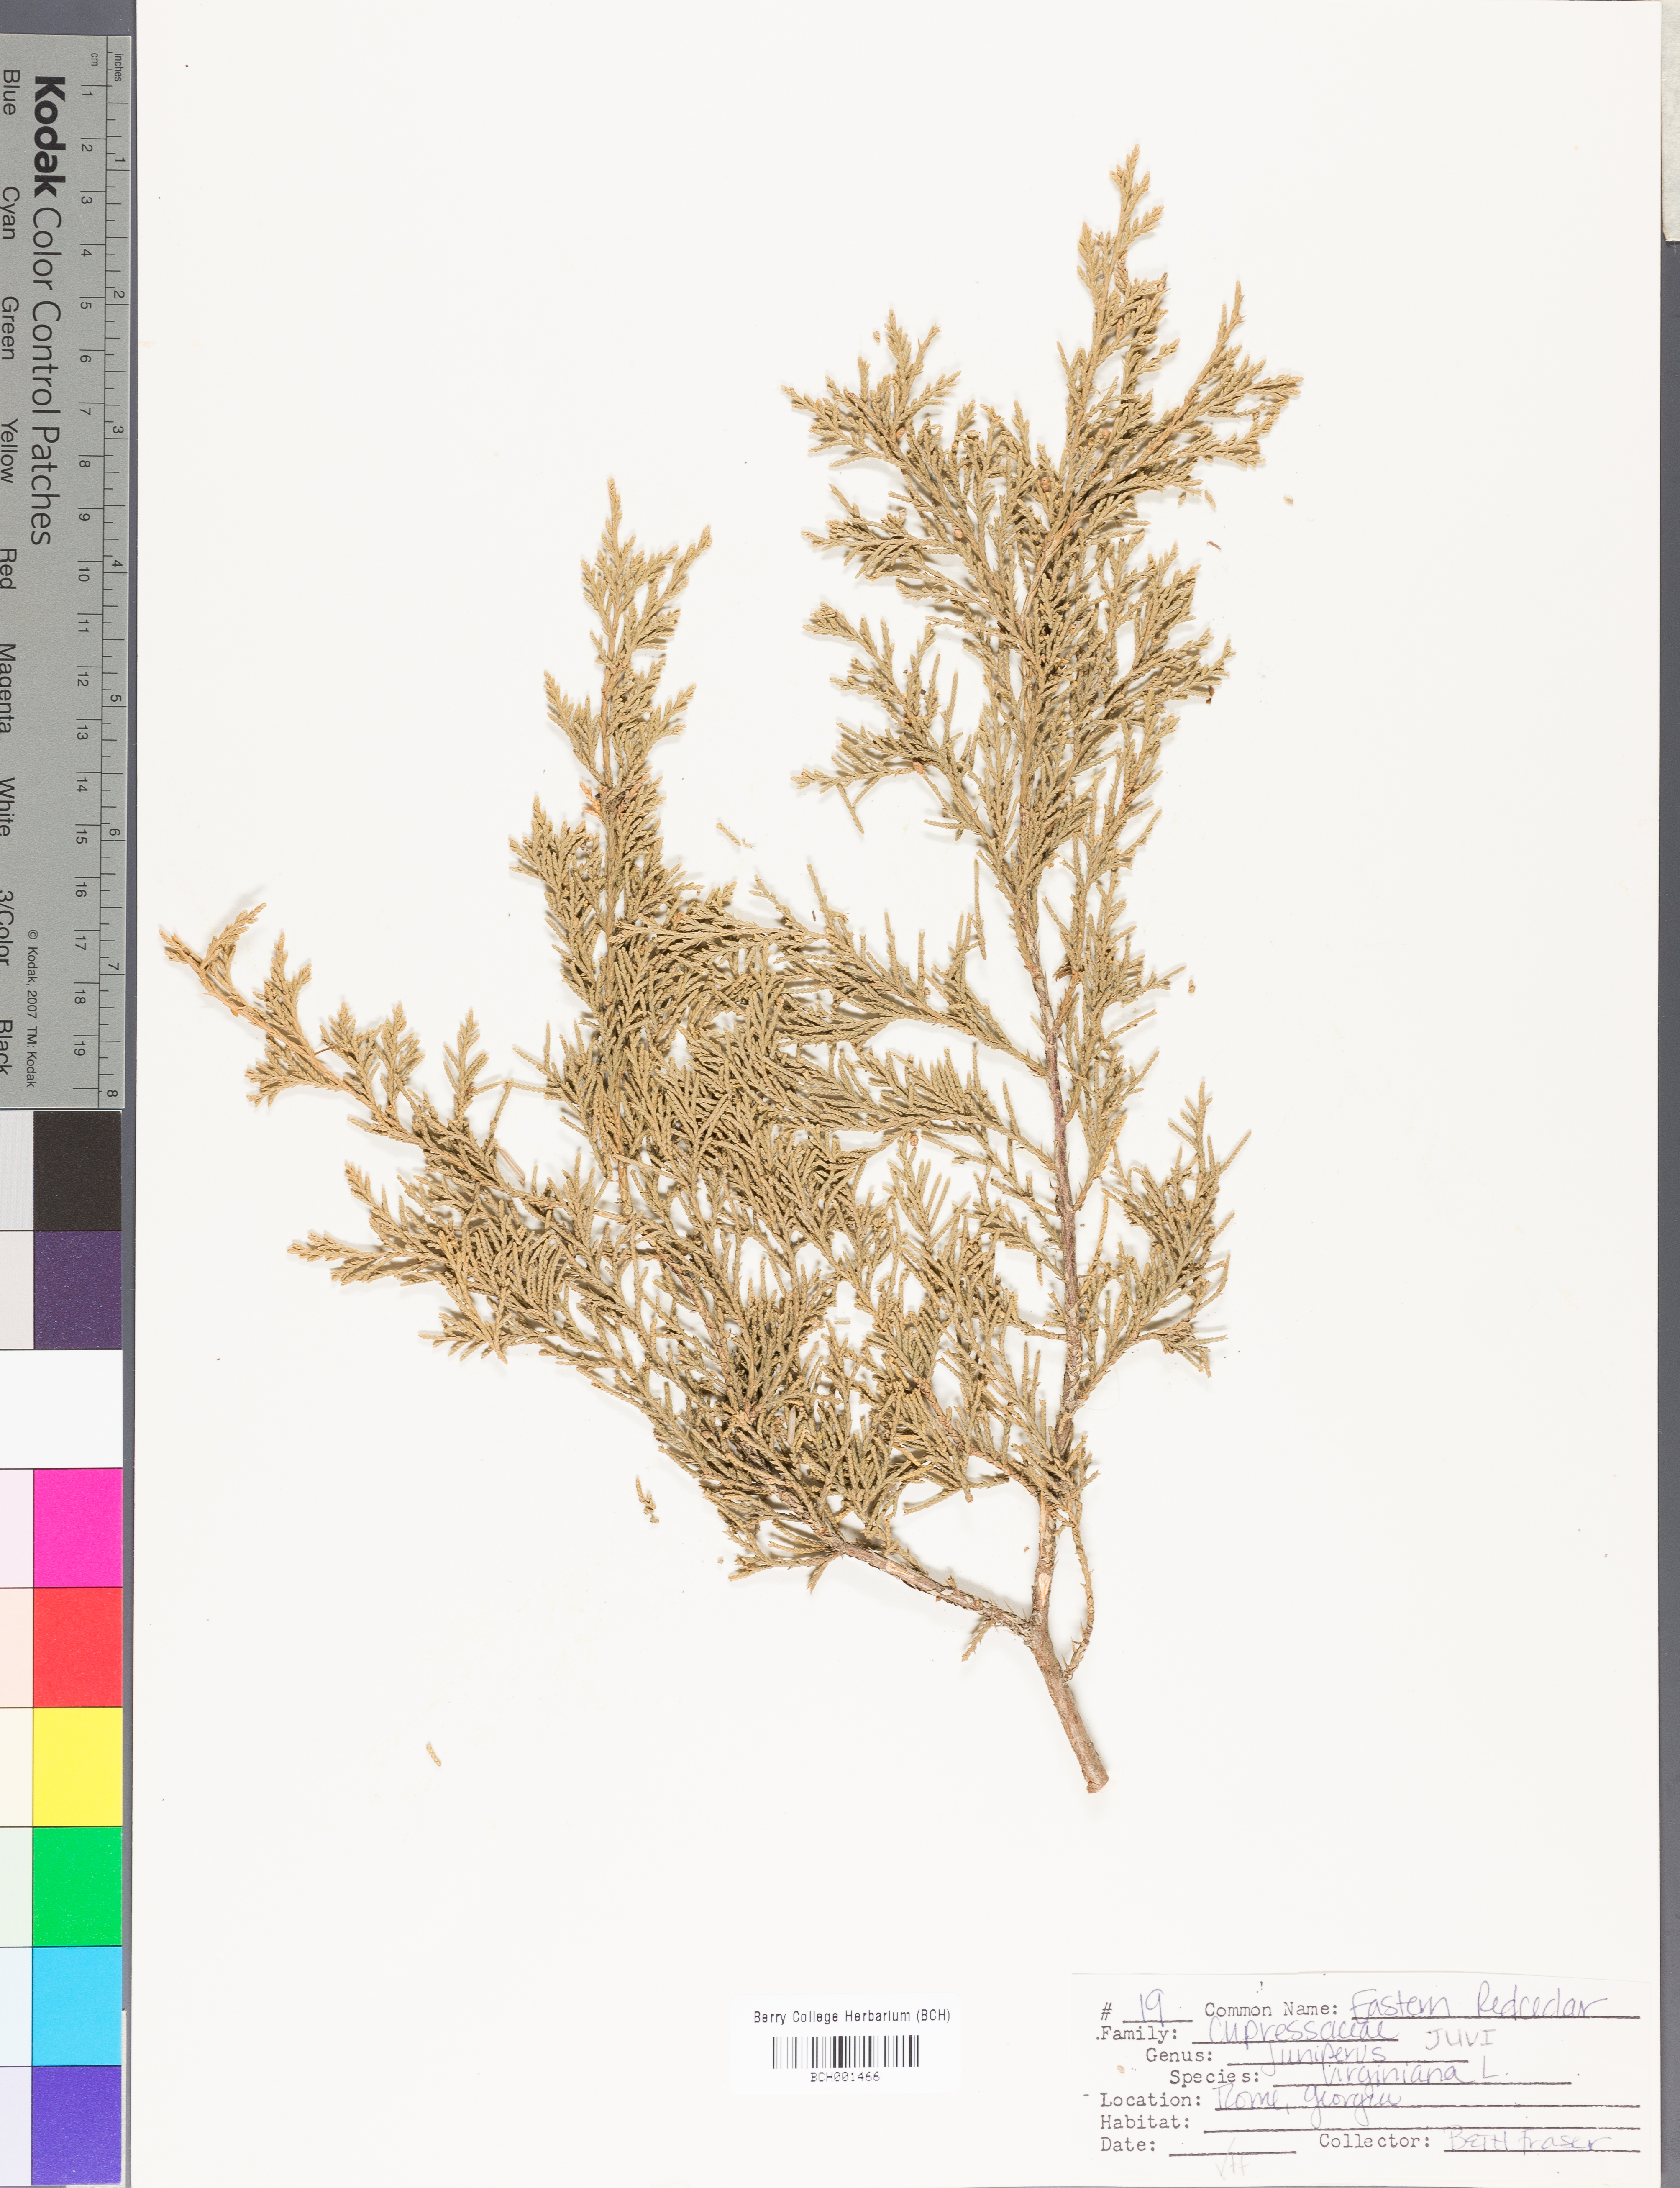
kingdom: Plantae
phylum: Tracheophyta
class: Pinopsida
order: Pinales
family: Cupressaceae
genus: Juniperus
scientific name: Juniperus virginiana
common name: Red juniper
